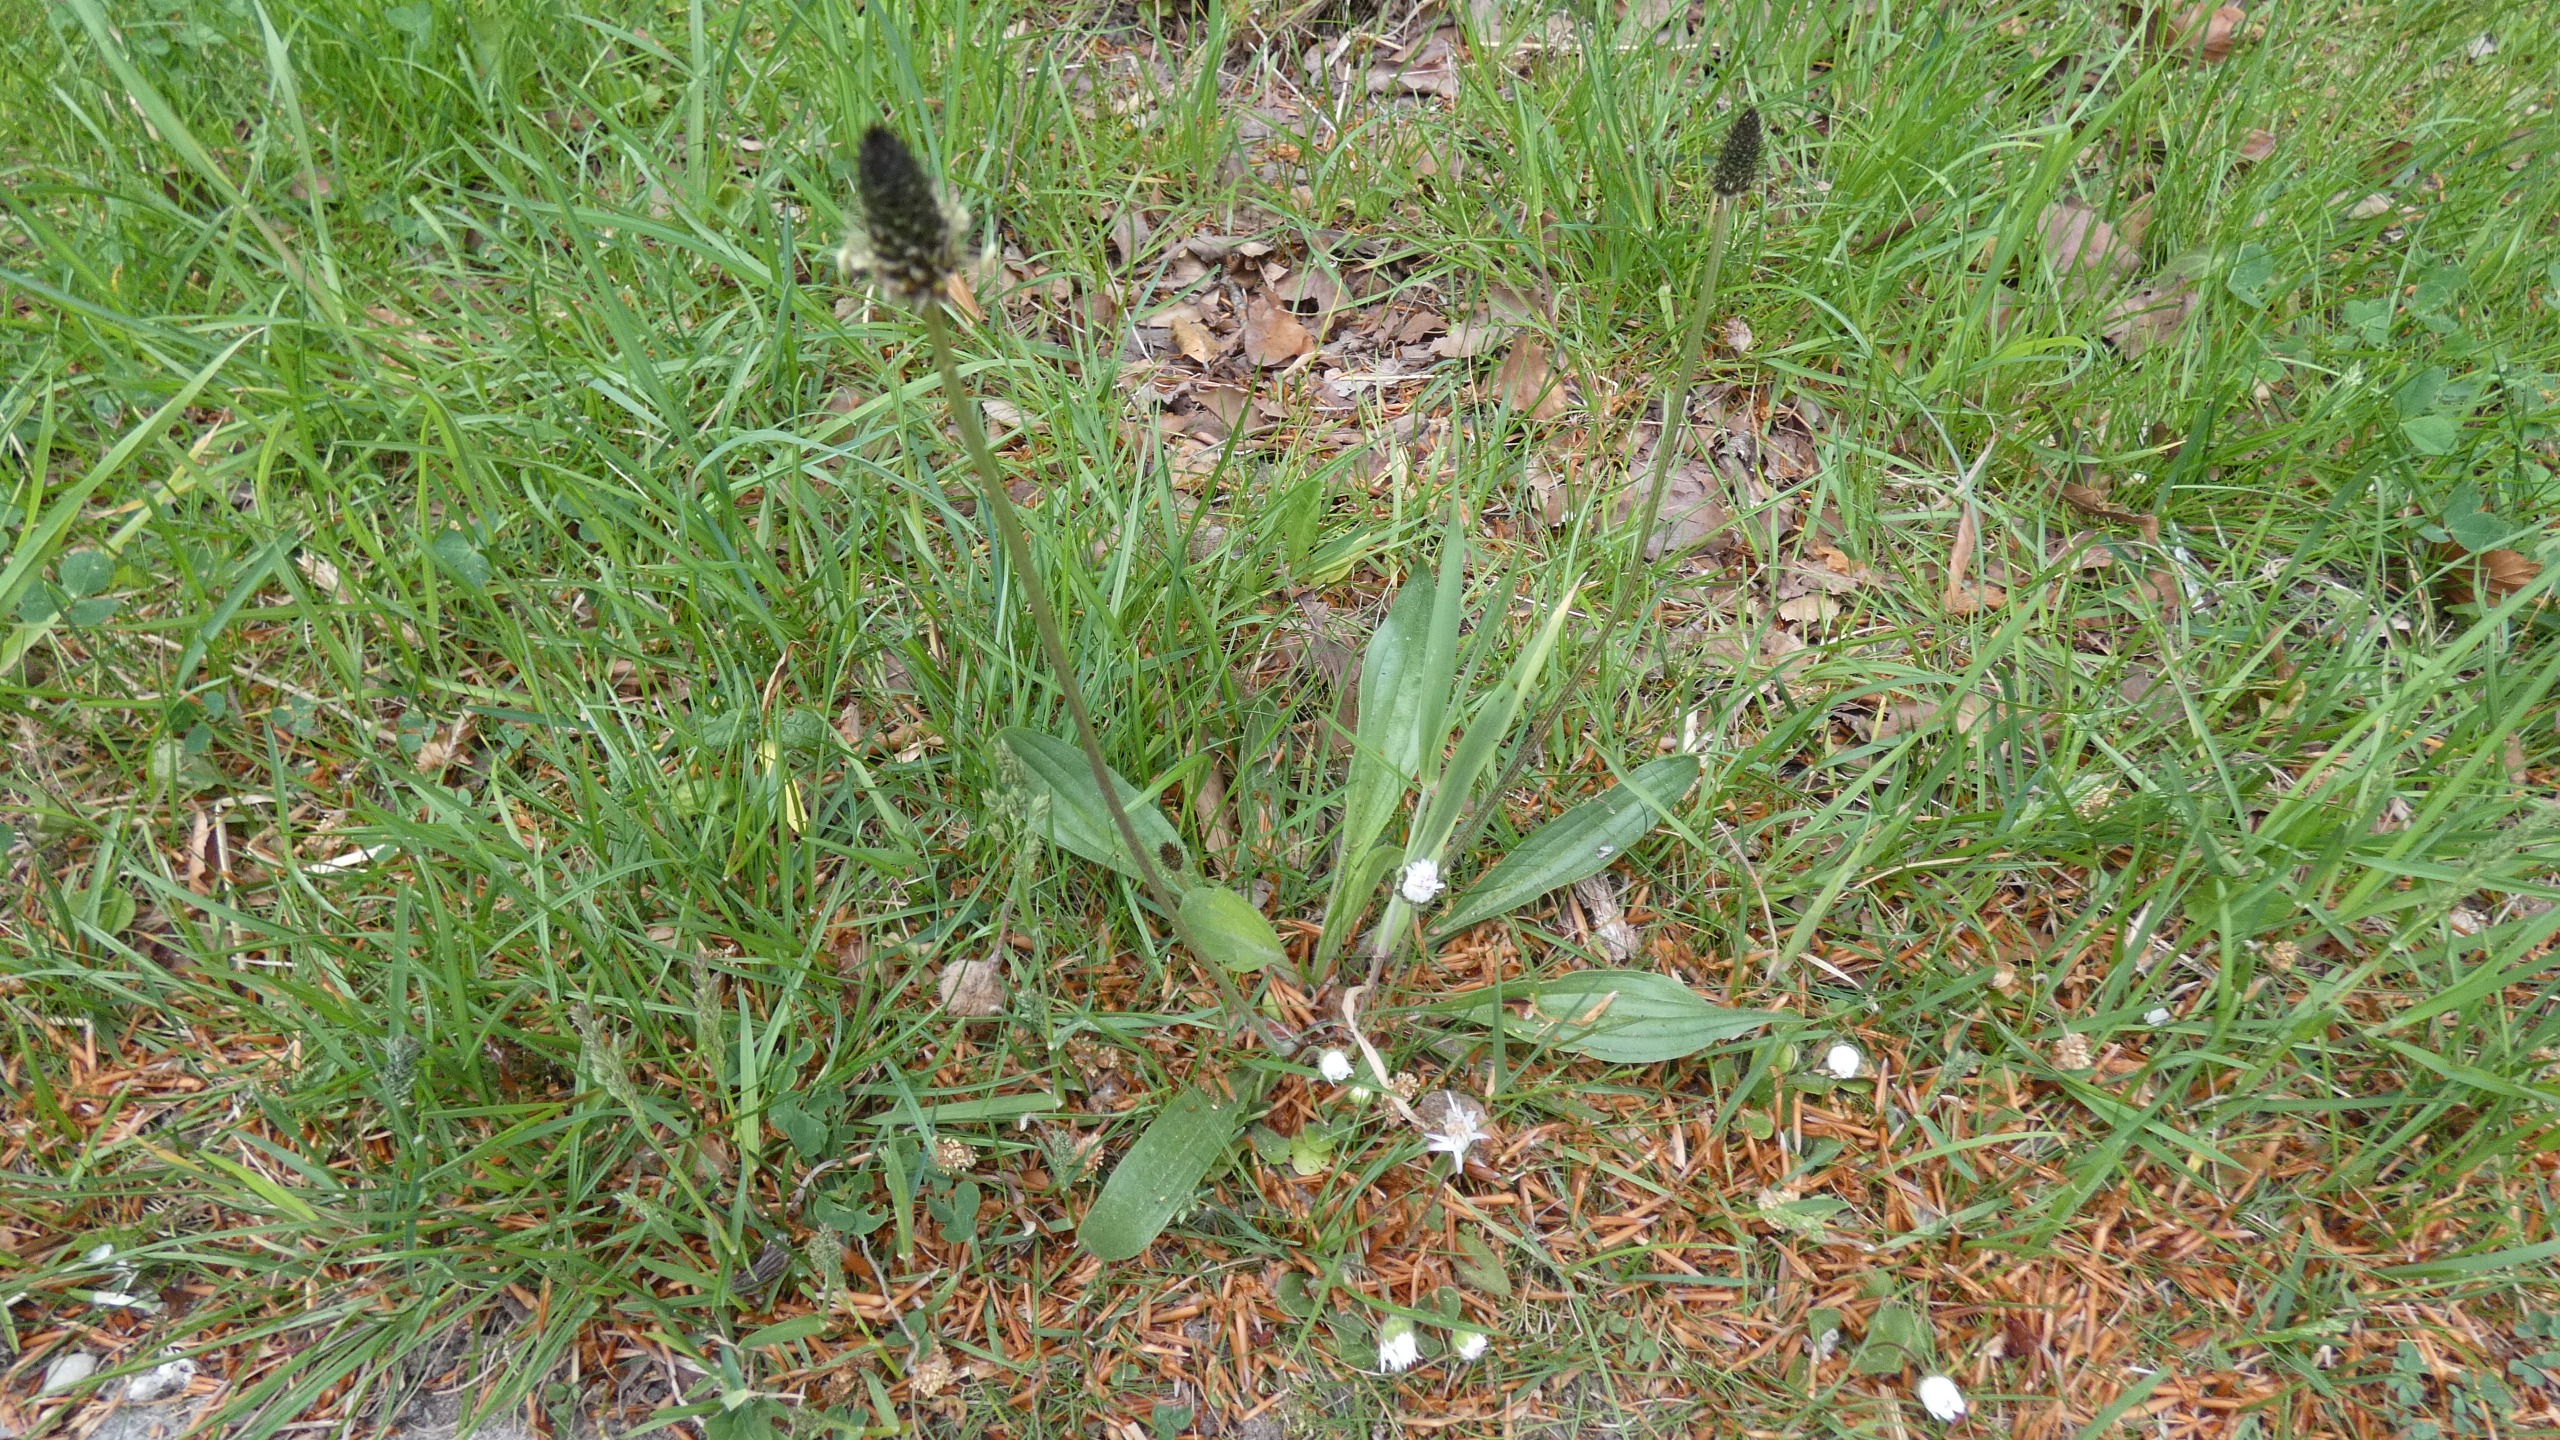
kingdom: Plantae
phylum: Tracheophyta
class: Magnoliopsida
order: Lamiales
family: Plantaginaceae
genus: Plantago
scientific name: Plantago lanceolata
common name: Lancet-vejbred
